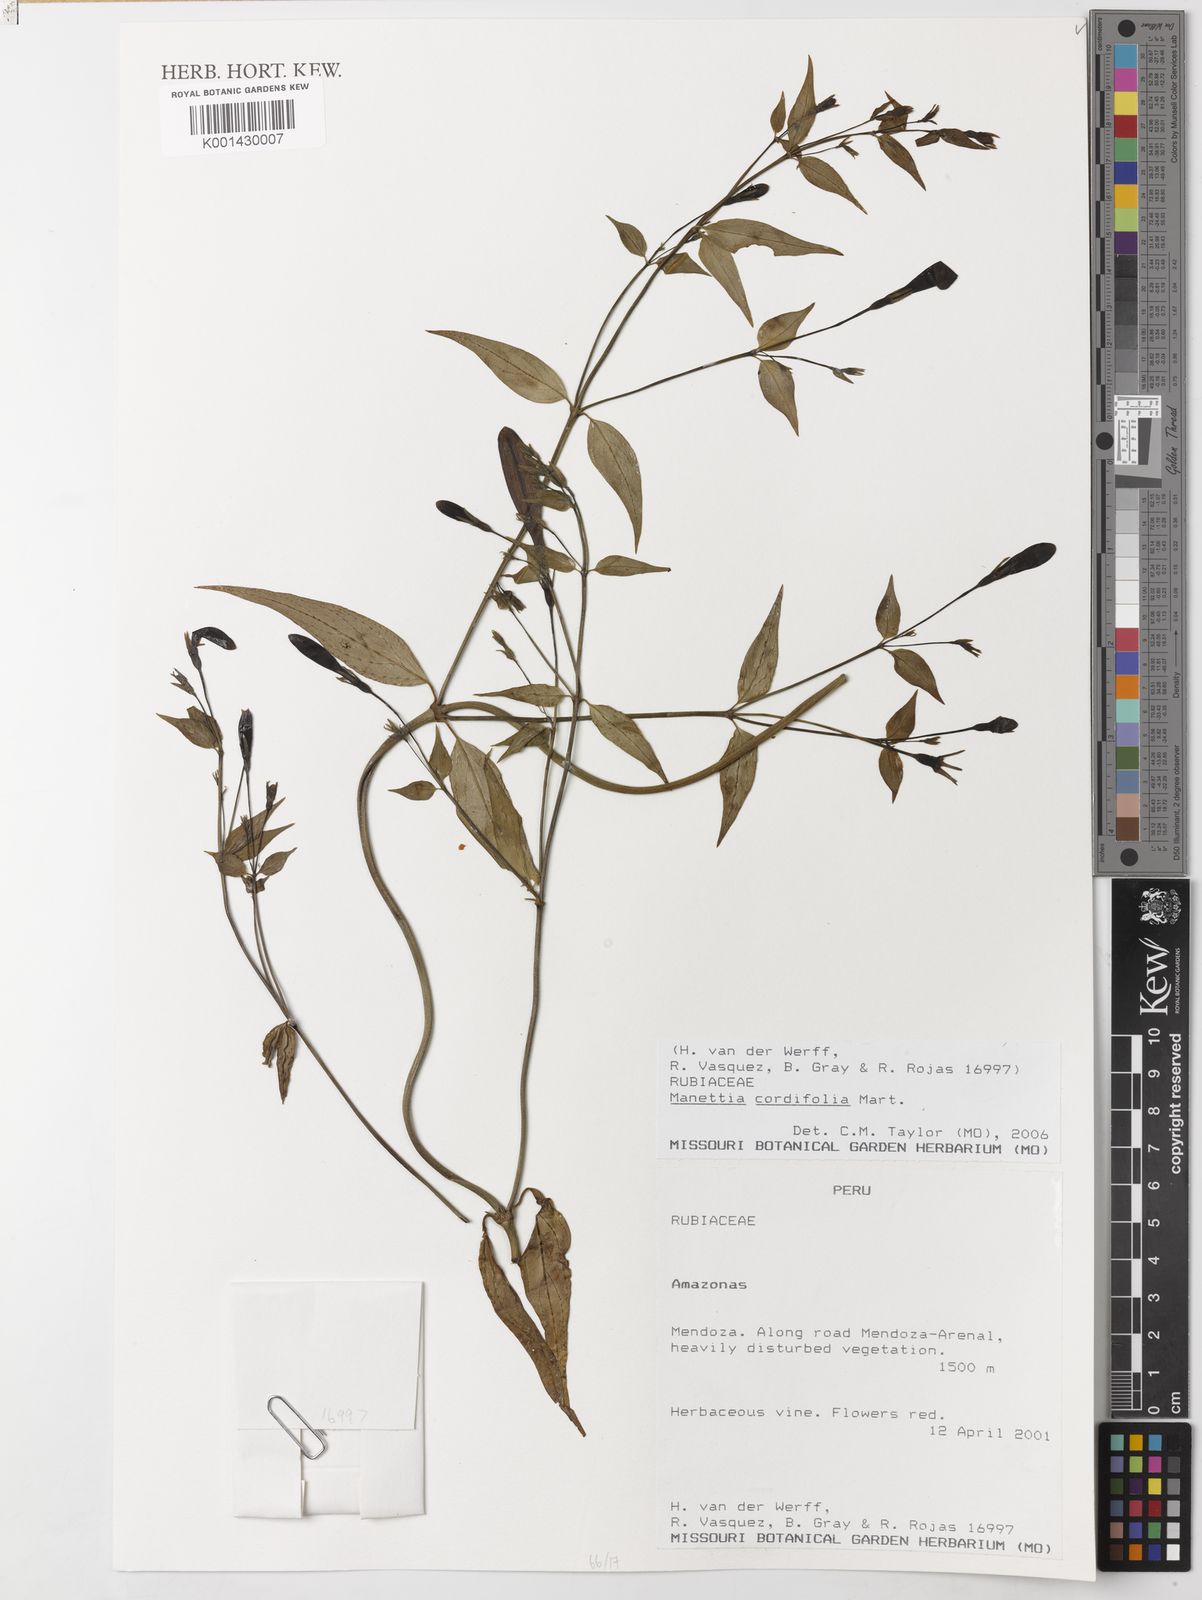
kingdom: Plantae
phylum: Tracheophyta
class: Magnoliopsida
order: Gentianales
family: Rubiaceae
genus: Manettia
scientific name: Manettia cordifolia
